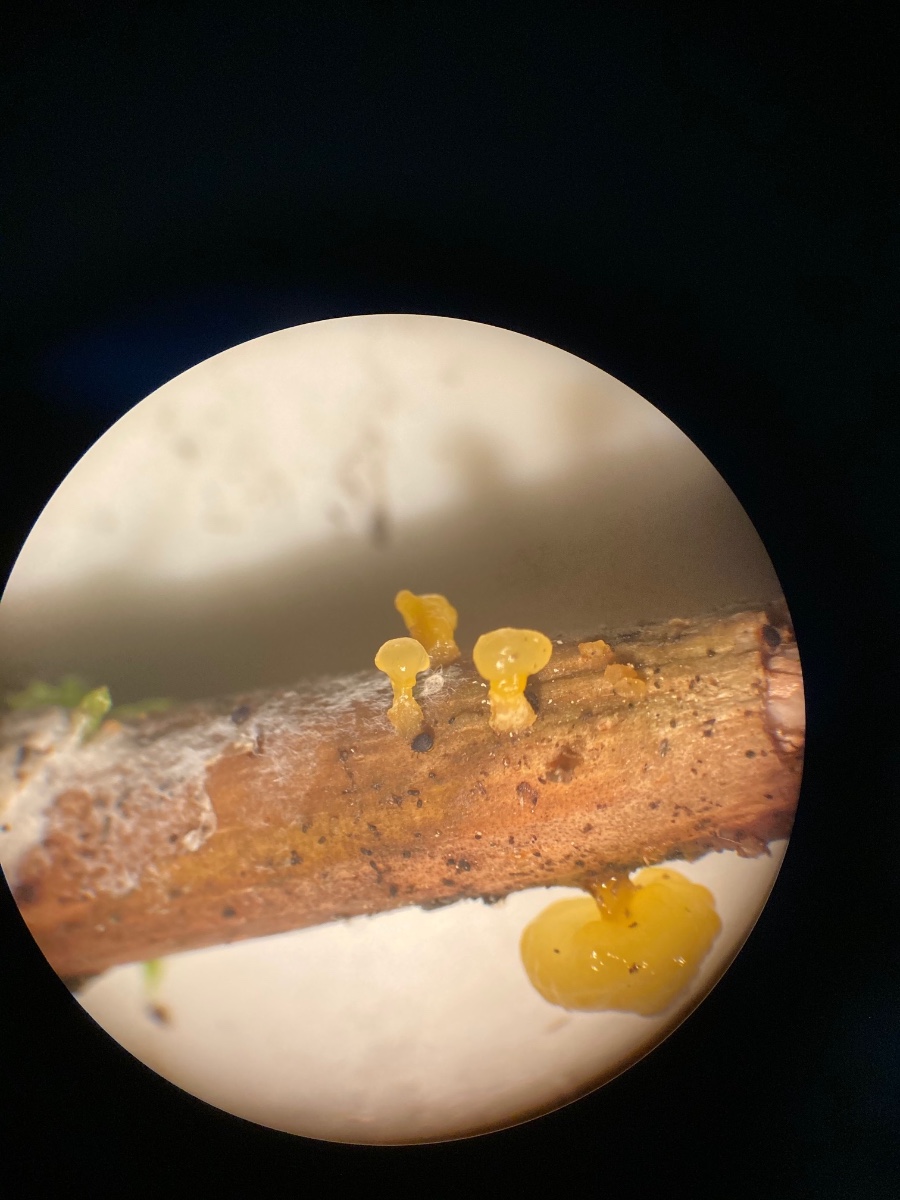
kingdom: Fungi
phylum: Basidiomycota
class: Dacrymycetes
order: Dacrymycetales
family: Dacrymycetaceae
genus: Dacrymyces
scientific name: Dacrymyces capitatus
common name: stilket tåresvamp
